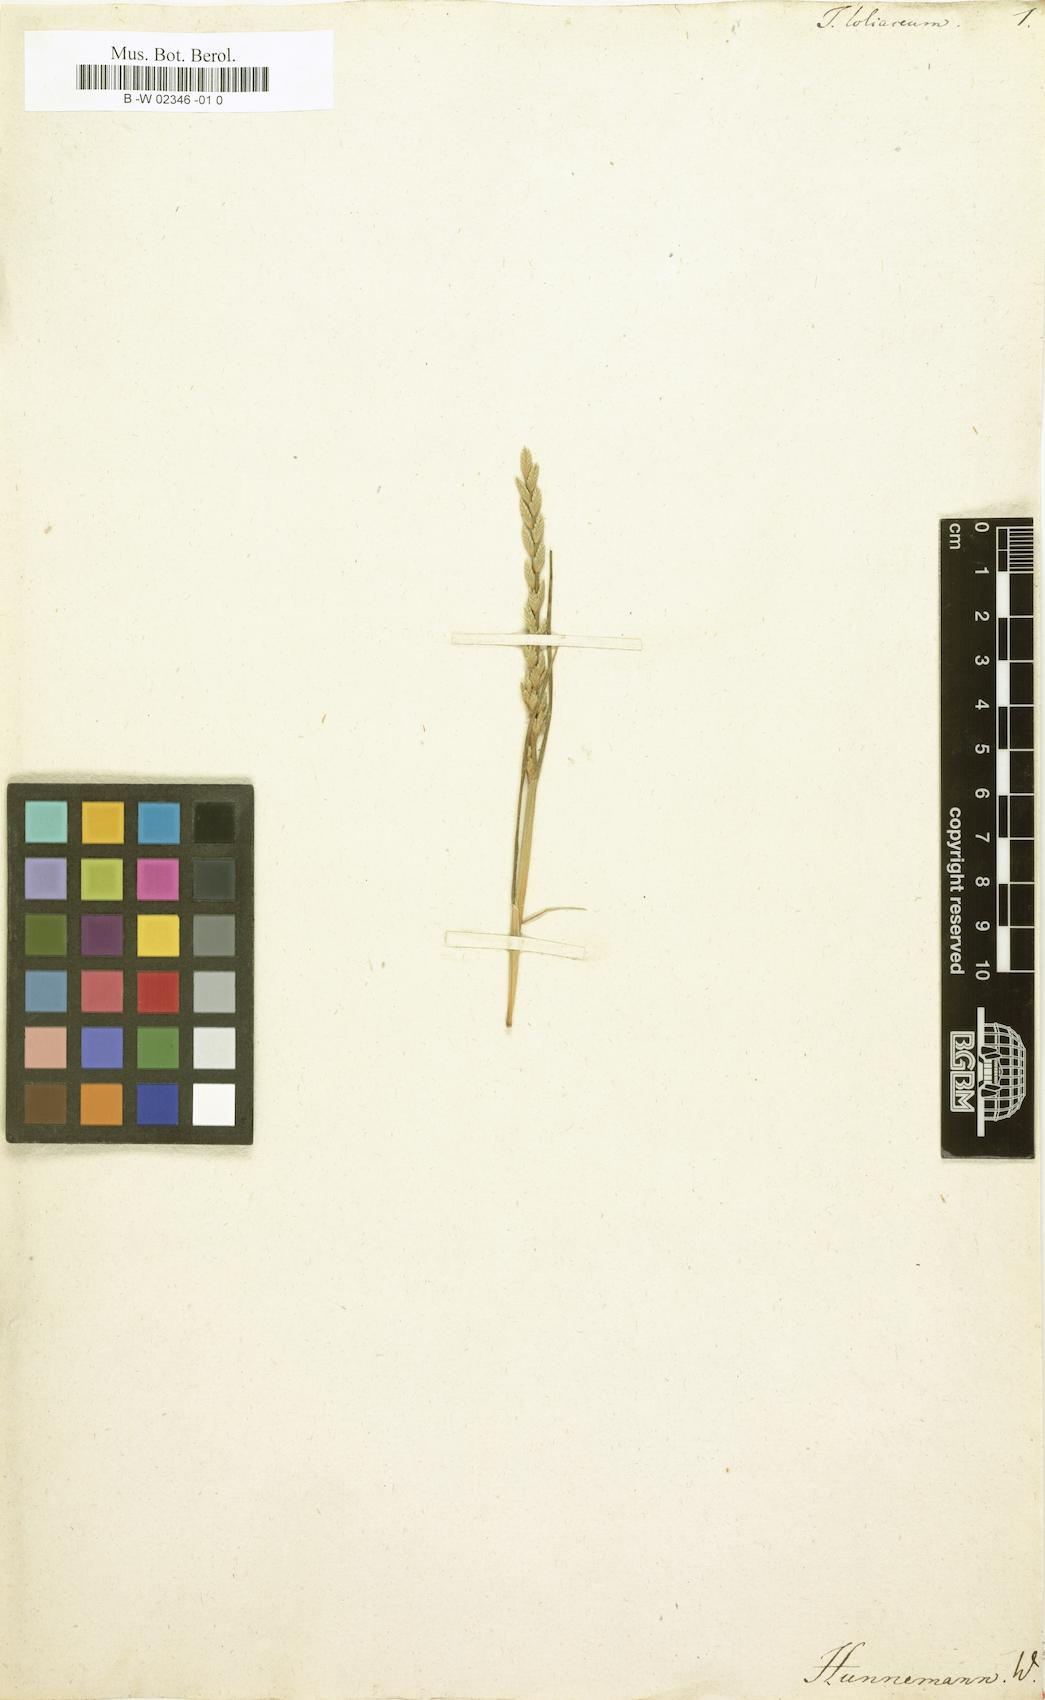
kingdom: Plantae
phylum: Tracheophyta
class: Liliopsida
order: Poales
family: Poaceae
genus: Catapodium
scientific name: Catapodium marinum
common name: Sea fern-grass
